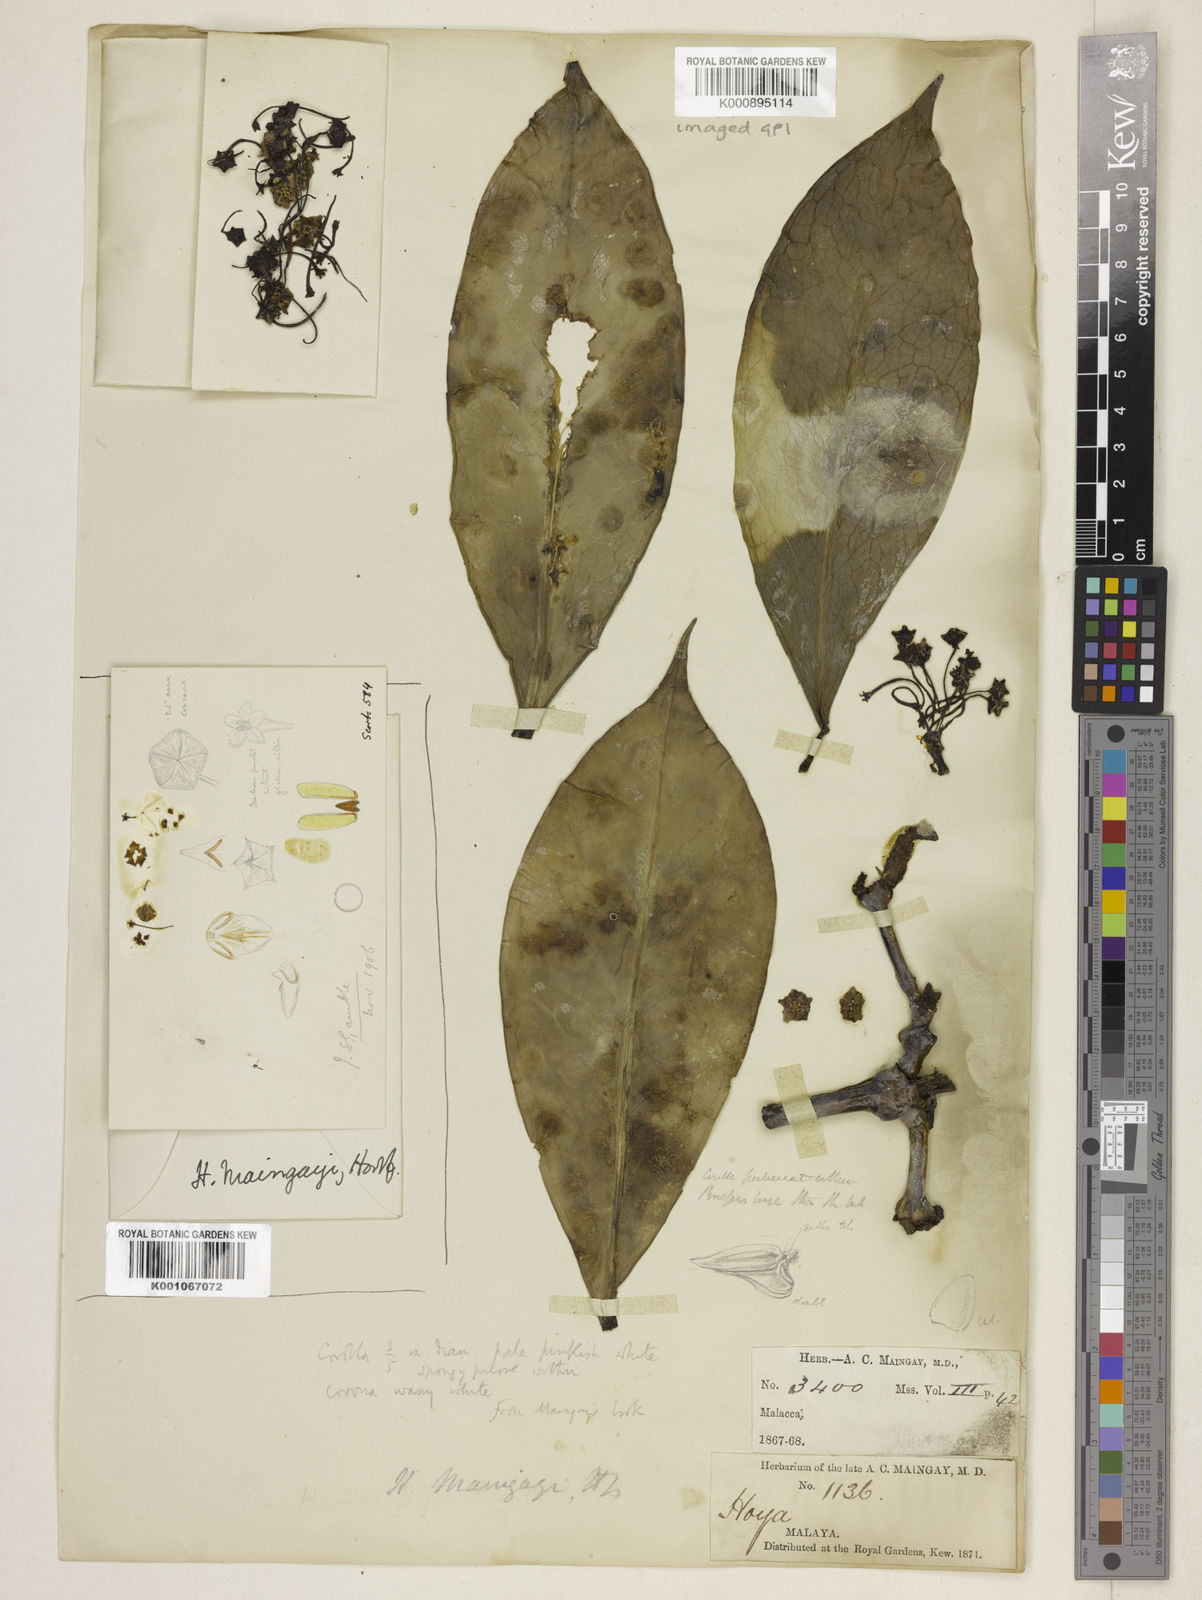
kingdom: Plantae
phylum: Tracheophyta
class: Magnoliopsida
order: Gentianales
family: Apocynaceae
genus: Hoya
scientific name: Hoya maingayi
